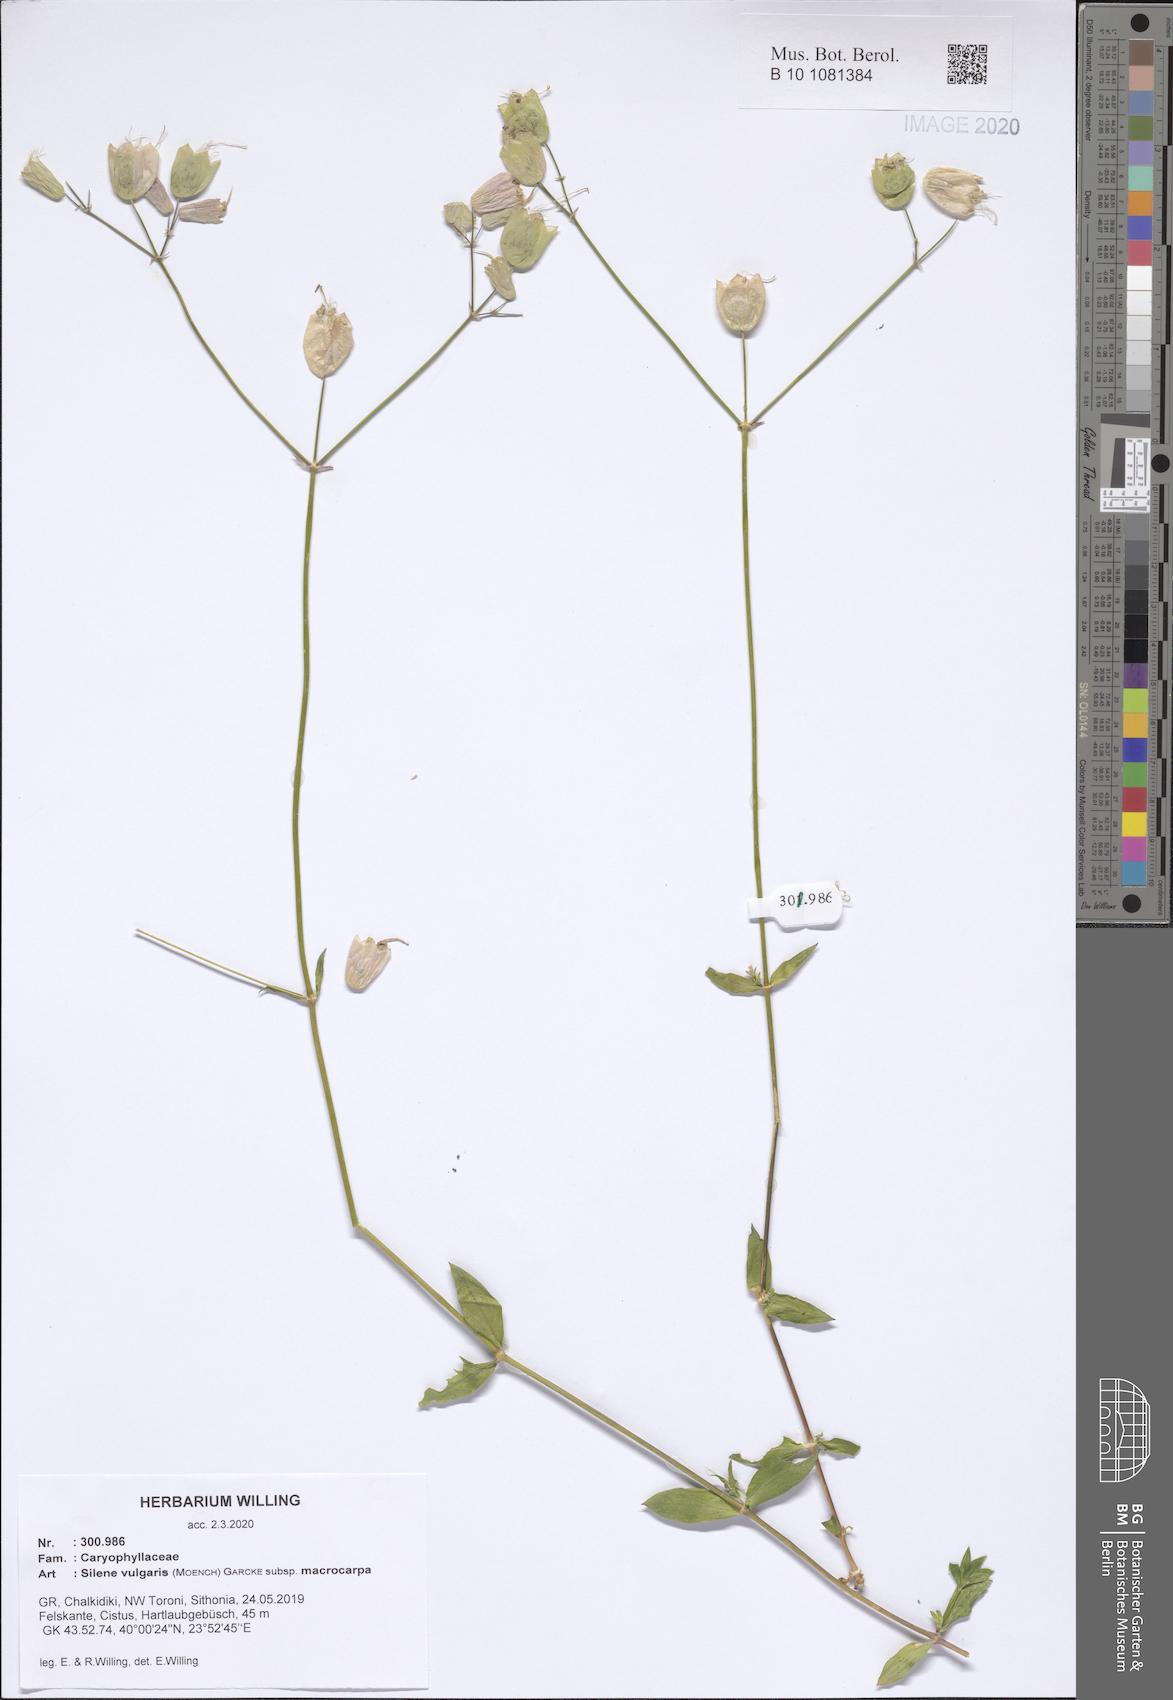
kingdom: Plantae
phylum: Tracheophyta
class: Magnoliopsida
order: Caryophyllales
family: Caryophyllaceae
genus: Silene
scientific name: Silene vulgaris
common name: Bladder campion
